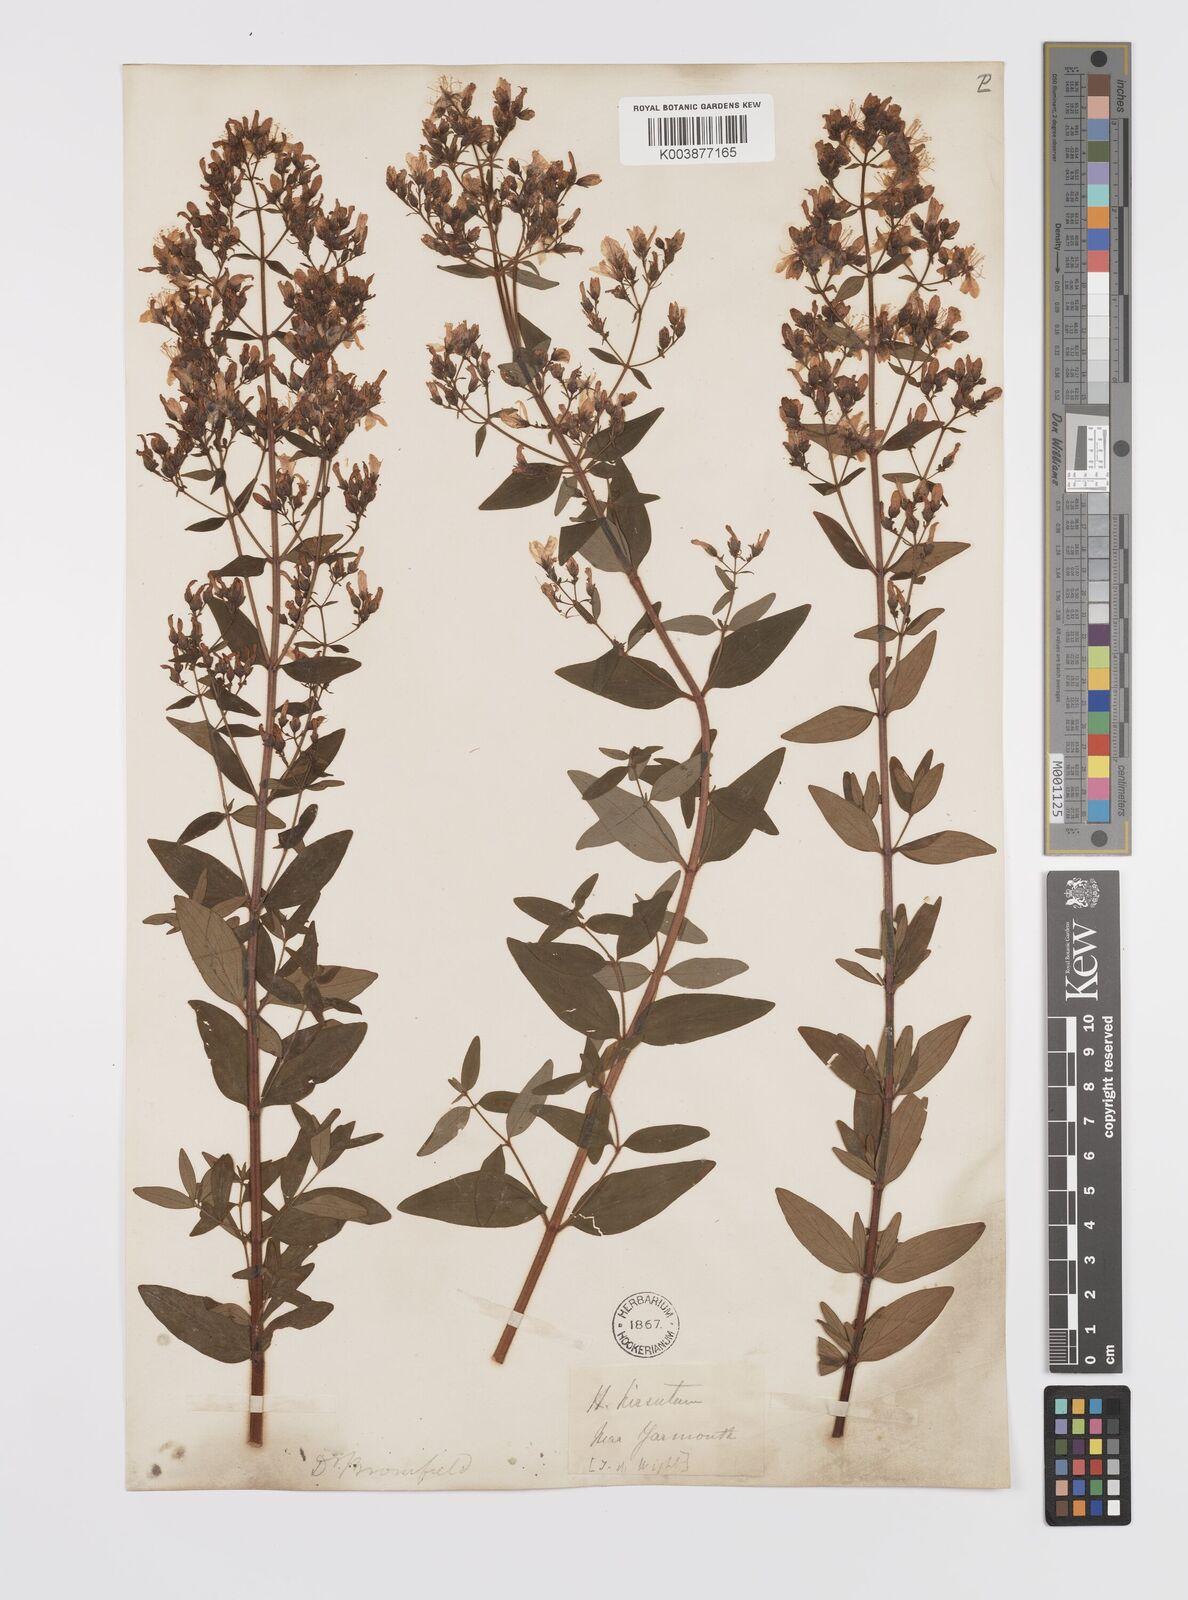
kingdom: Plantae
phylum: Tracheophyta
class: Magnoliopsida
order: Malpighiales
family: Hypericaceae
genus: Hypericum
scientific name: Hypericum hirsutum
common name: Hairy st. john's-wort
